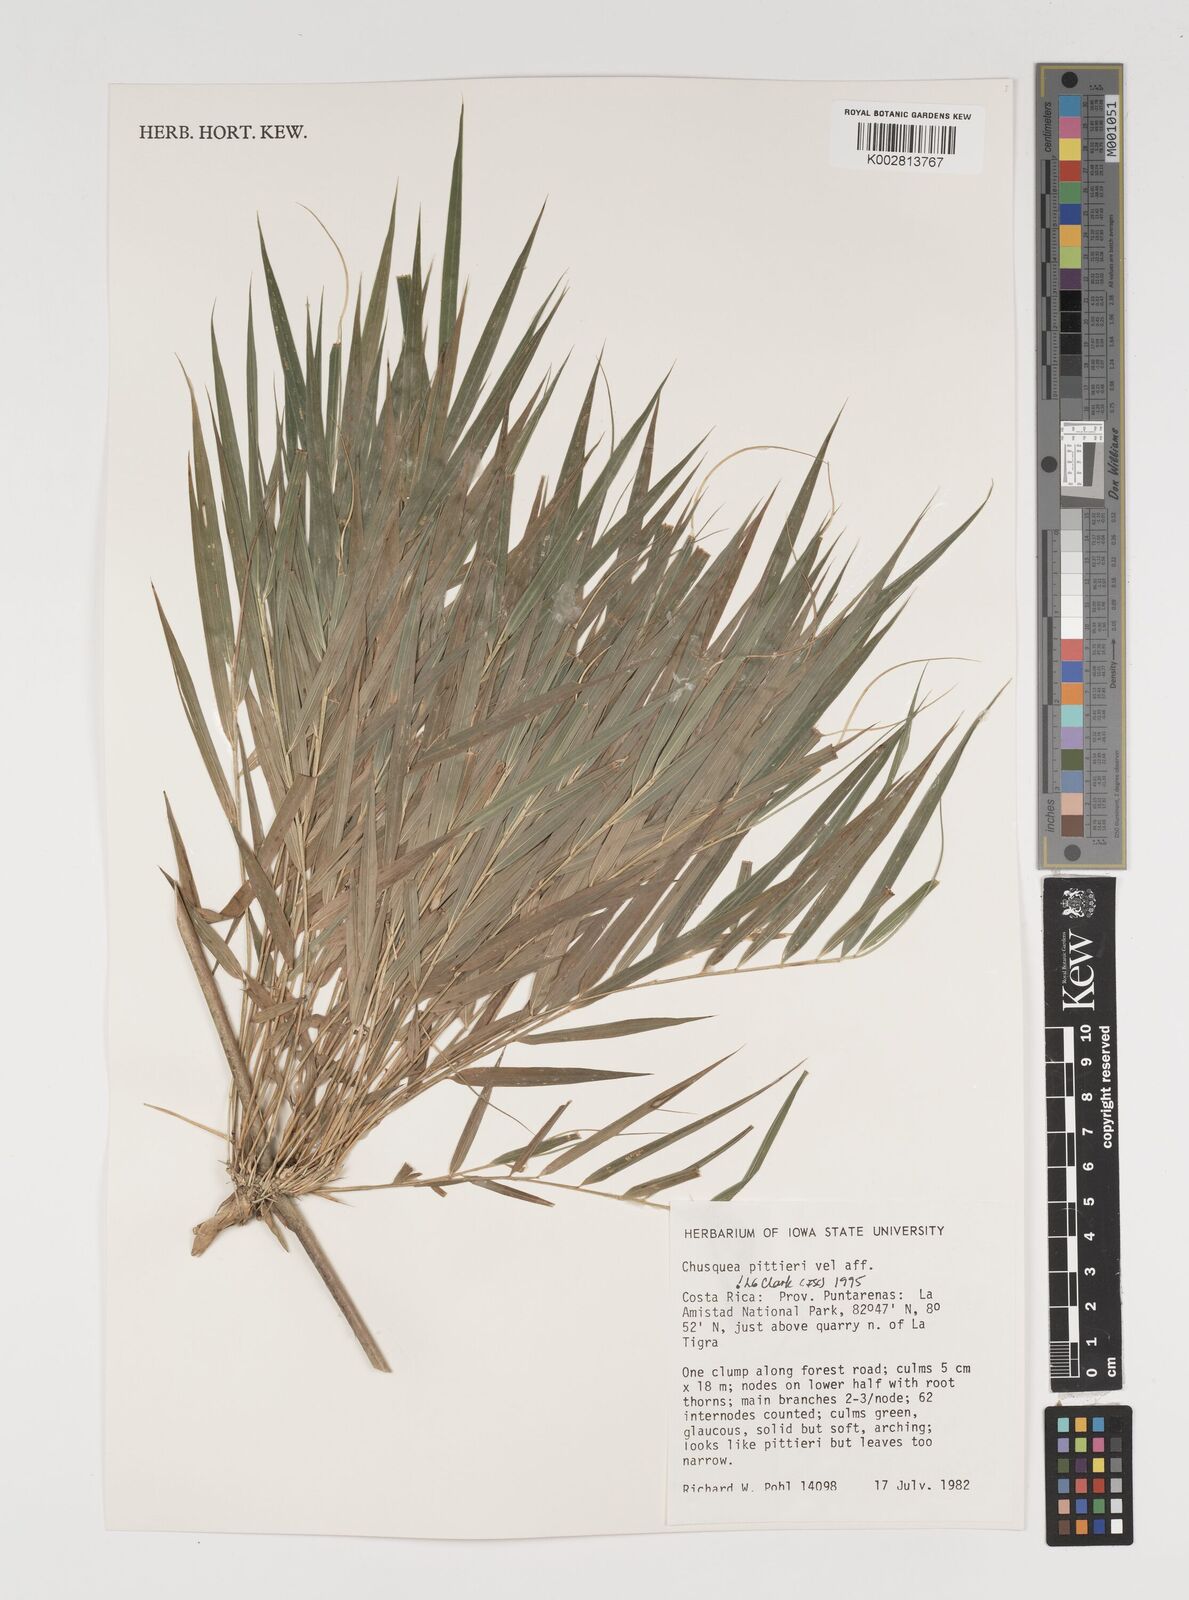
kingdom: Plantae
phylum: Tracheophyta
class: Liliopsida
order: Poales
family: Poaceae
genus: Chusquea
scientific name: Chusquea pittieri
